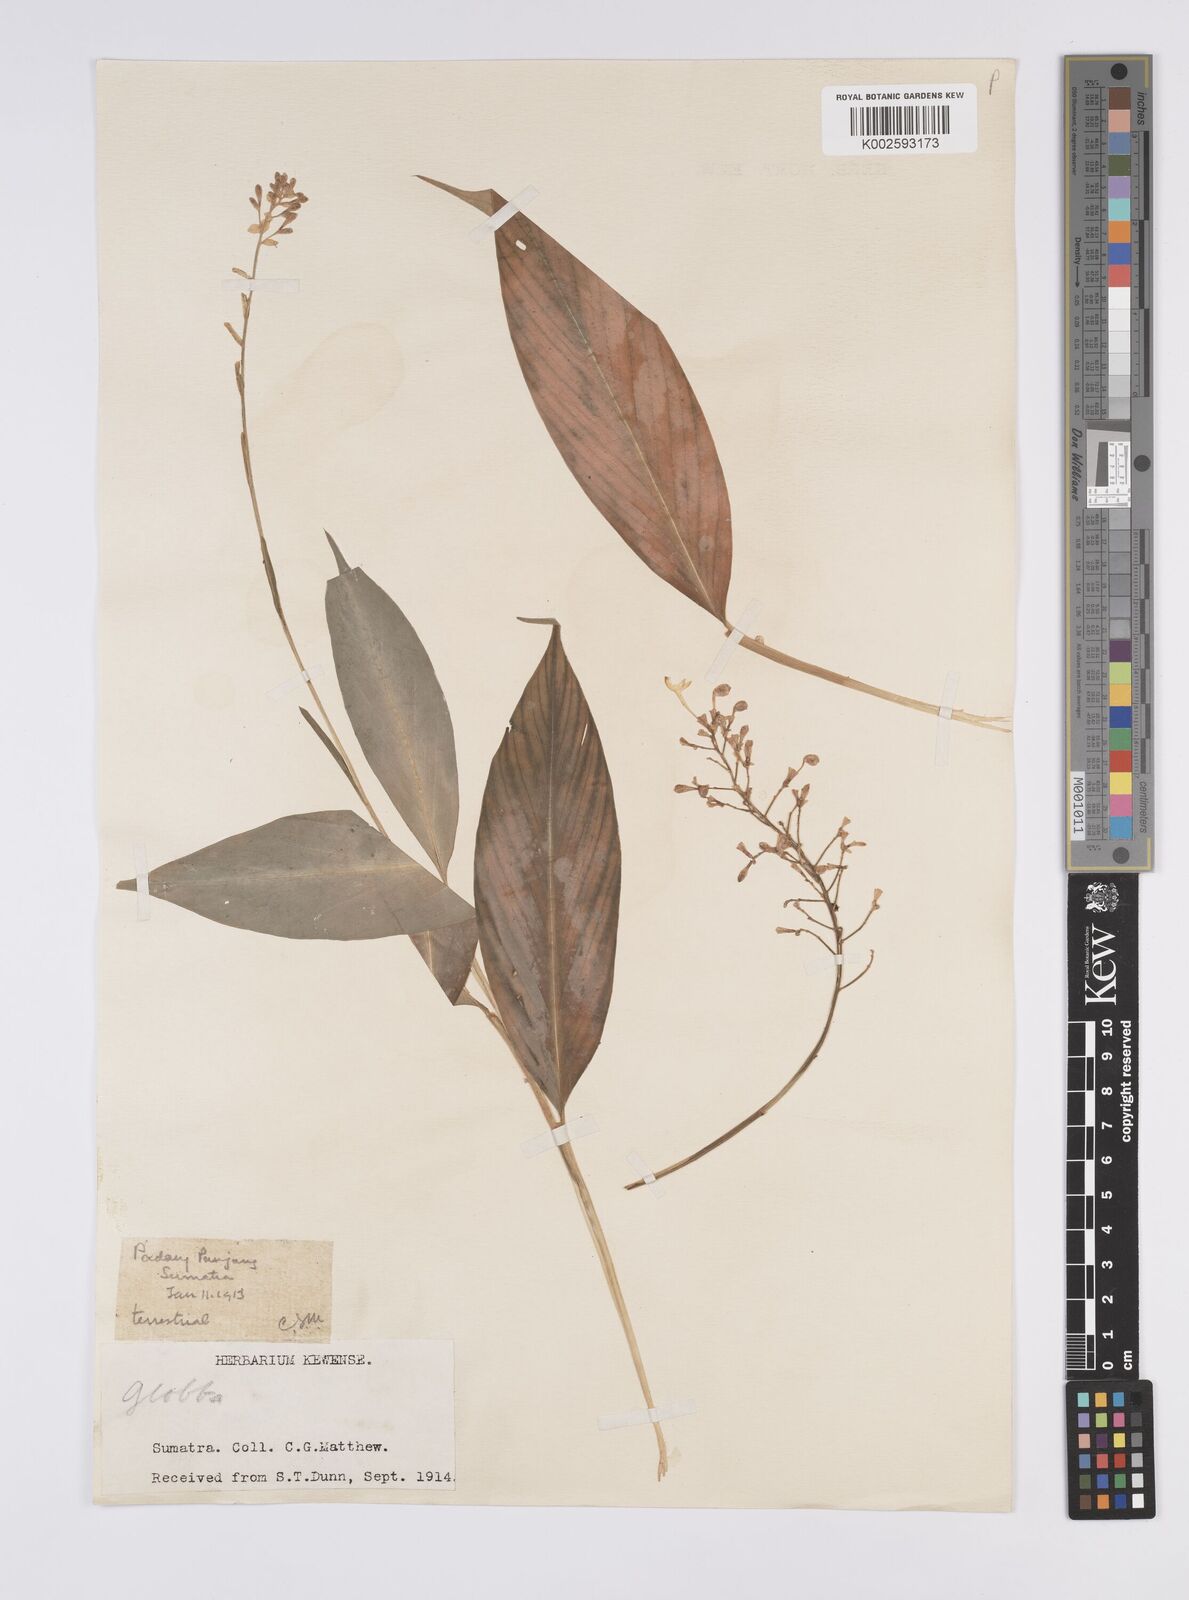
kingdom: Plantae
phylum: Tracheophyta
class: Liliopsida
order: Zingiberales
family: Zingiberaceae
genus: Globba
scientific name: Globba
